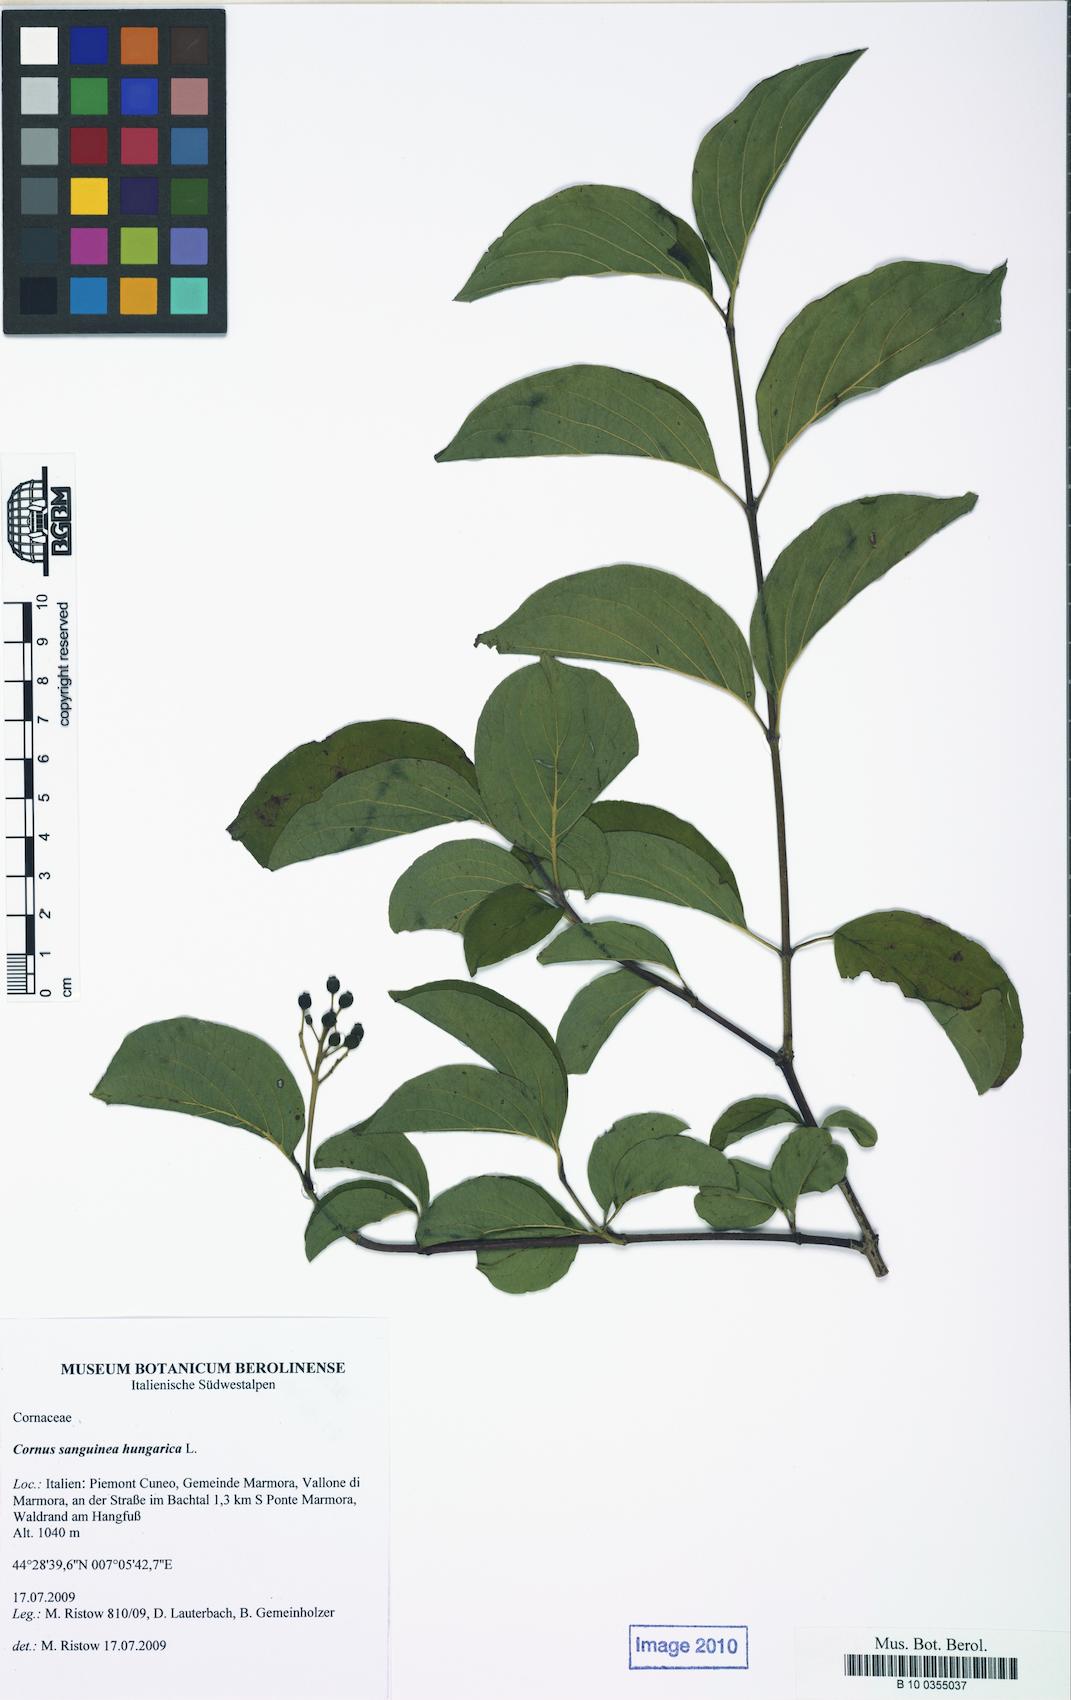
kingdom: Plantae
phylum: Tracheophyta
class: Magnoliopsida
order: Cornales
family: Cornaceae
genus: Cornus
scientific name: Cornus sanguinea
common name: Dogwood
